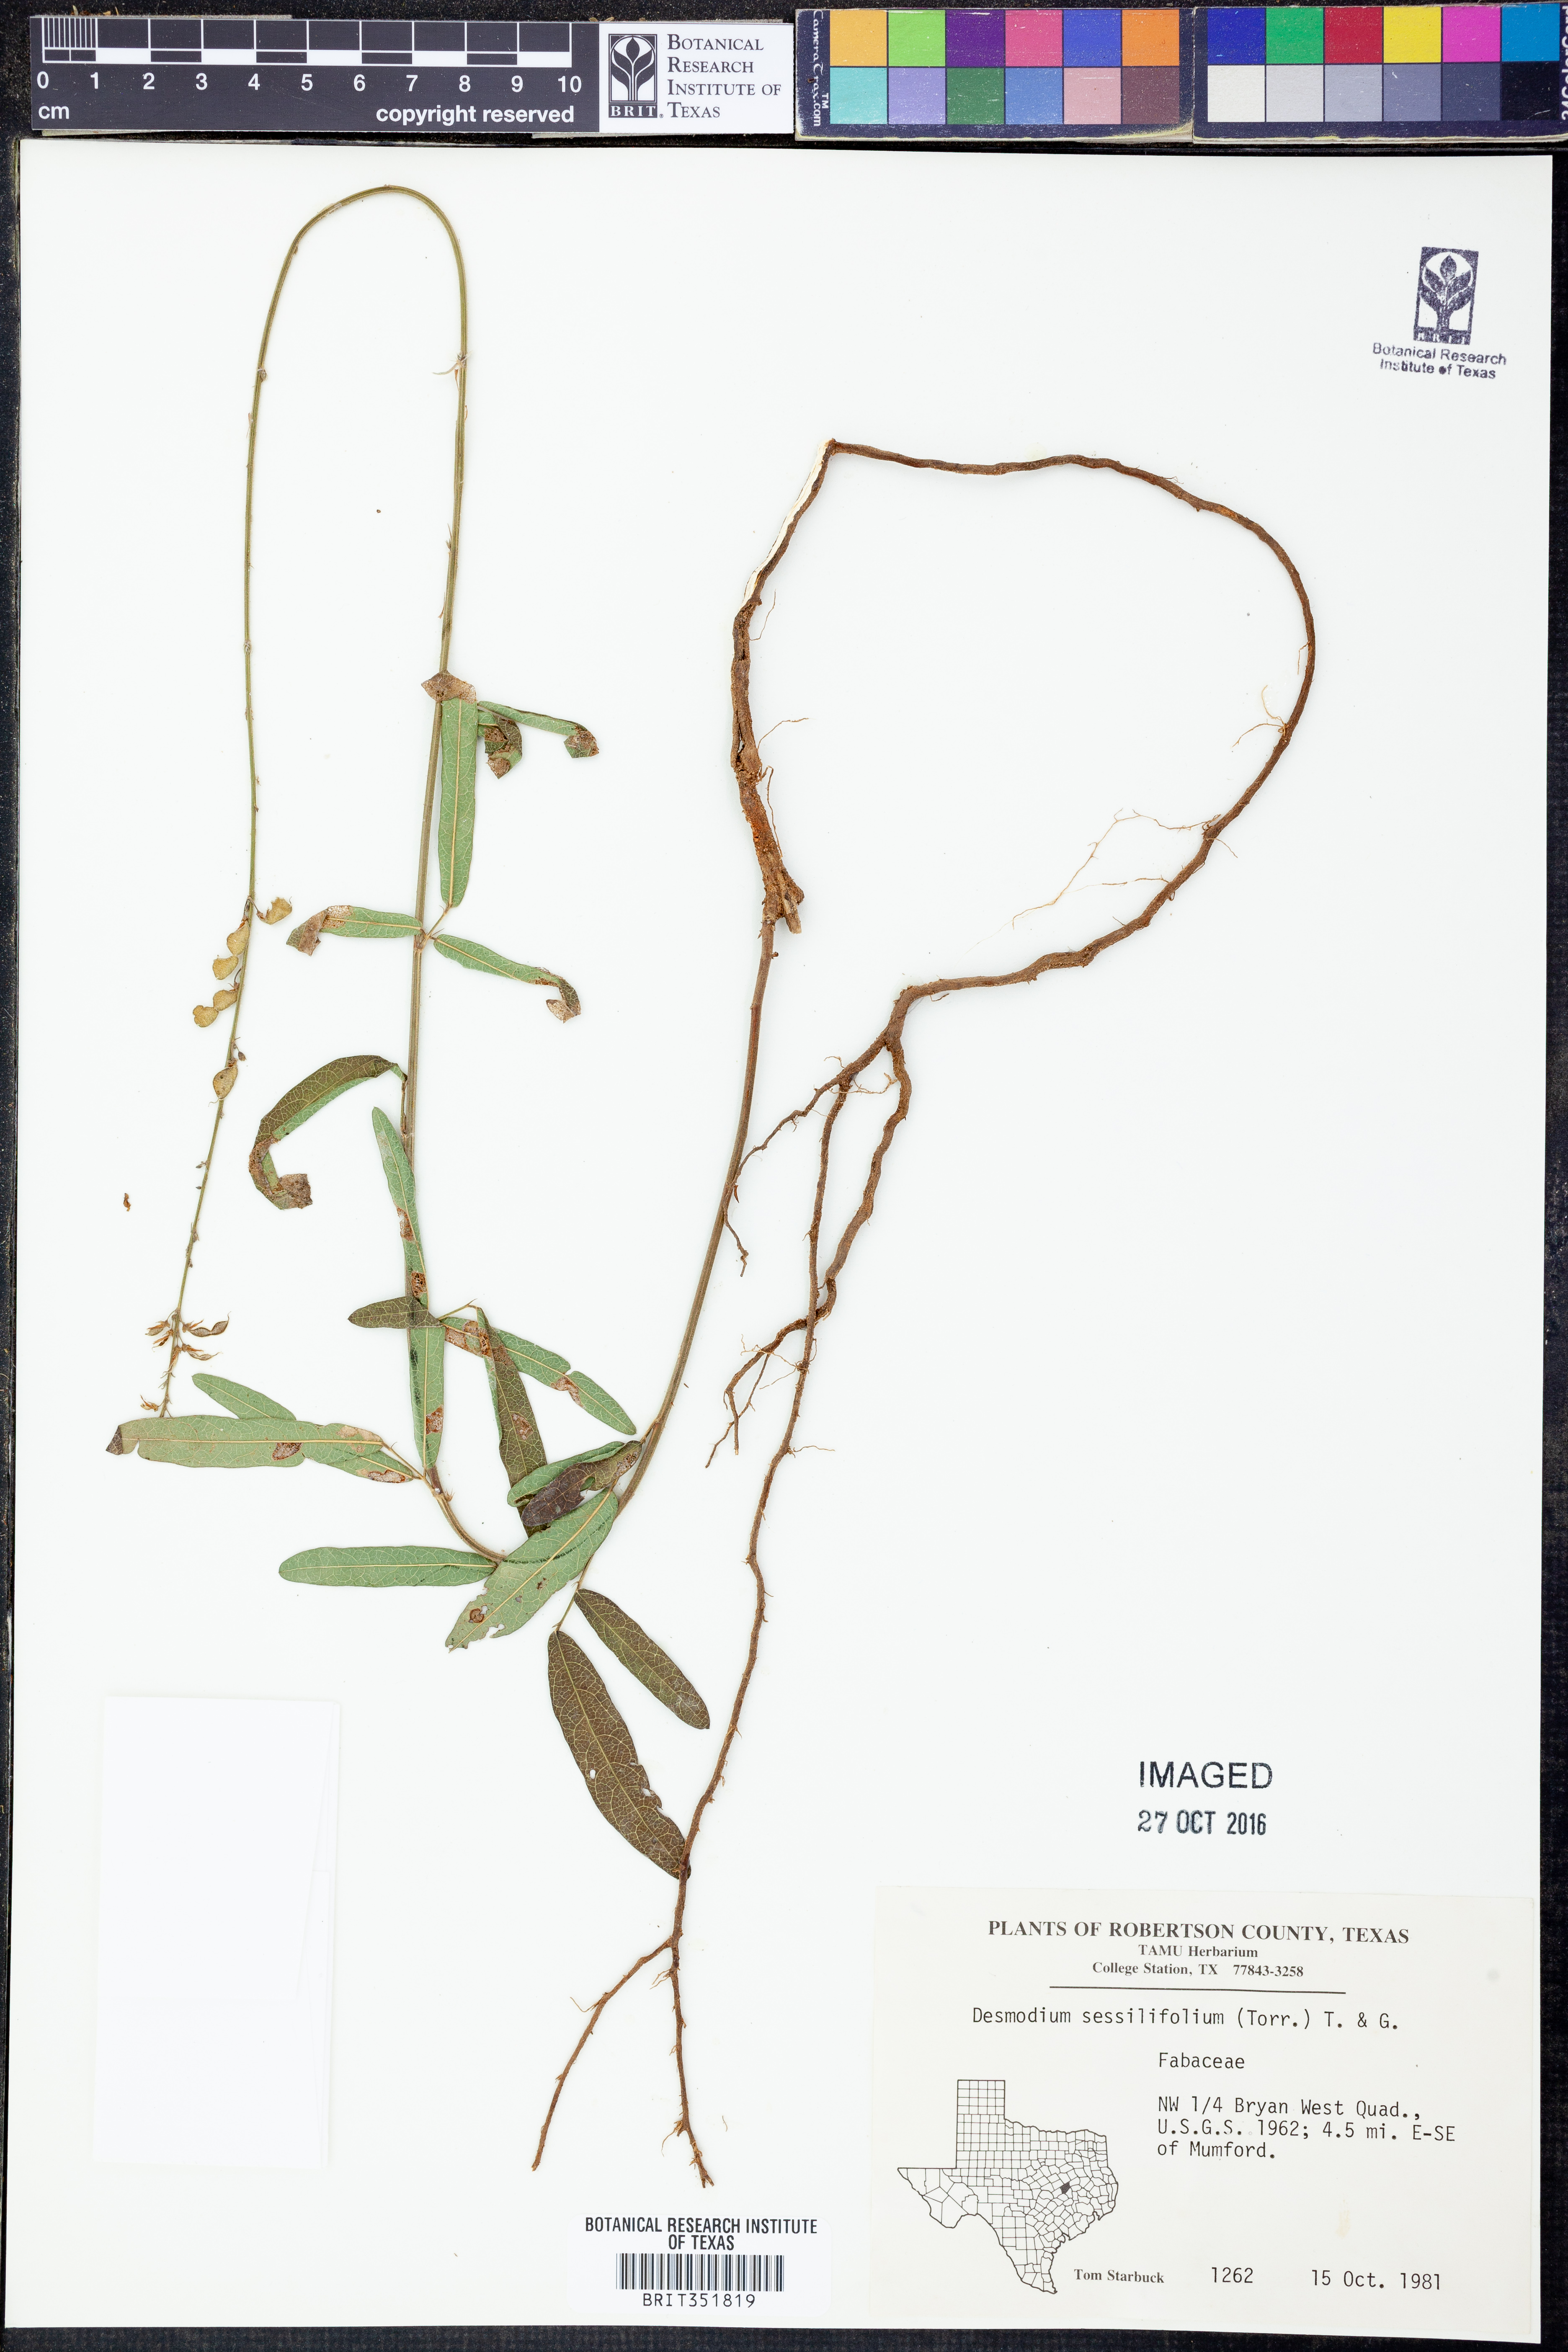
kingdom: Plantae
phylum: Tracheophyta
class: Magnoliopsida
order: Fabales
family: Fabaceae
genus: Desmodium
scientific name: Desmodium sessilifolium
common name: Sessile tick-clover
